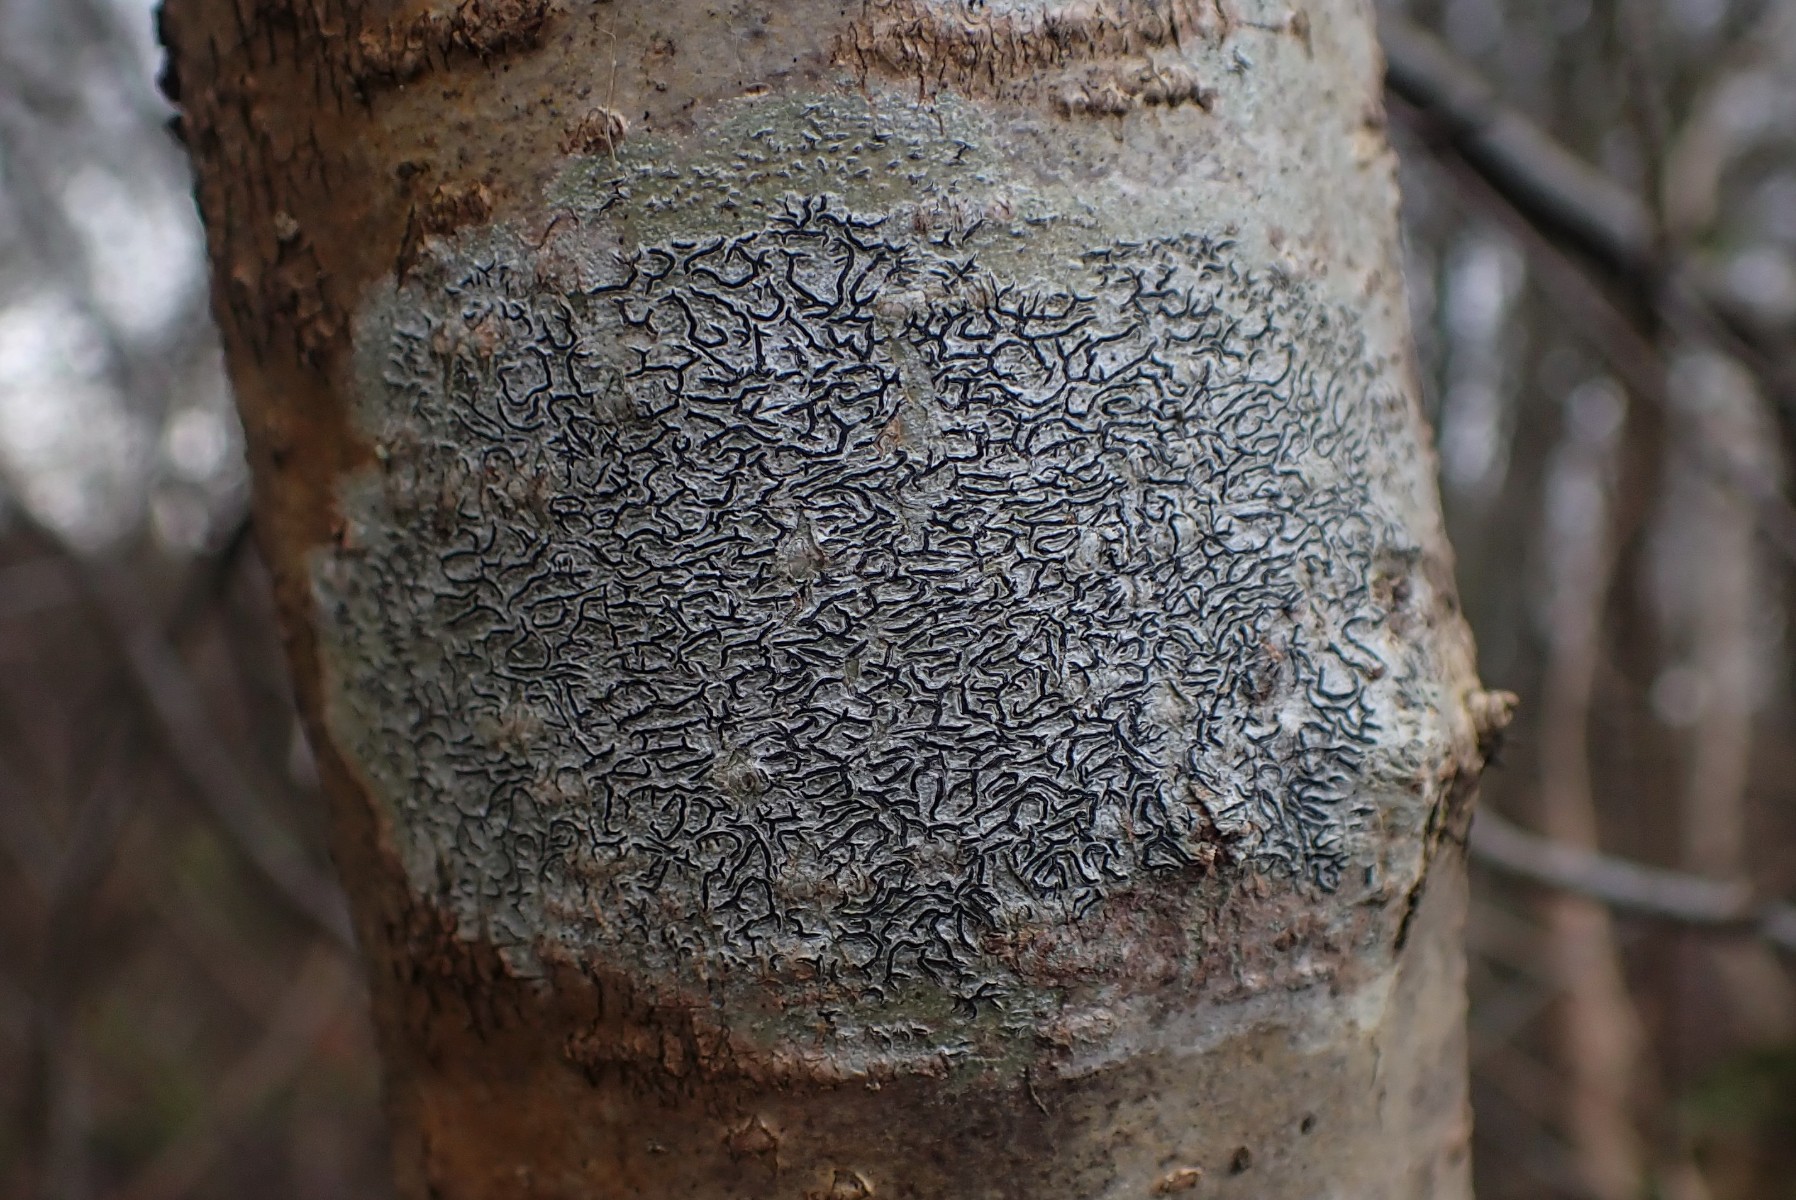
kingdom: Fungi
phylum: Ascomycota
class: Lecanoromycetes
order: Ostropales
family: Graphidaceae
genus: Graphis
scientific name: Graphis scripta
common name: almindelig skriftlav
